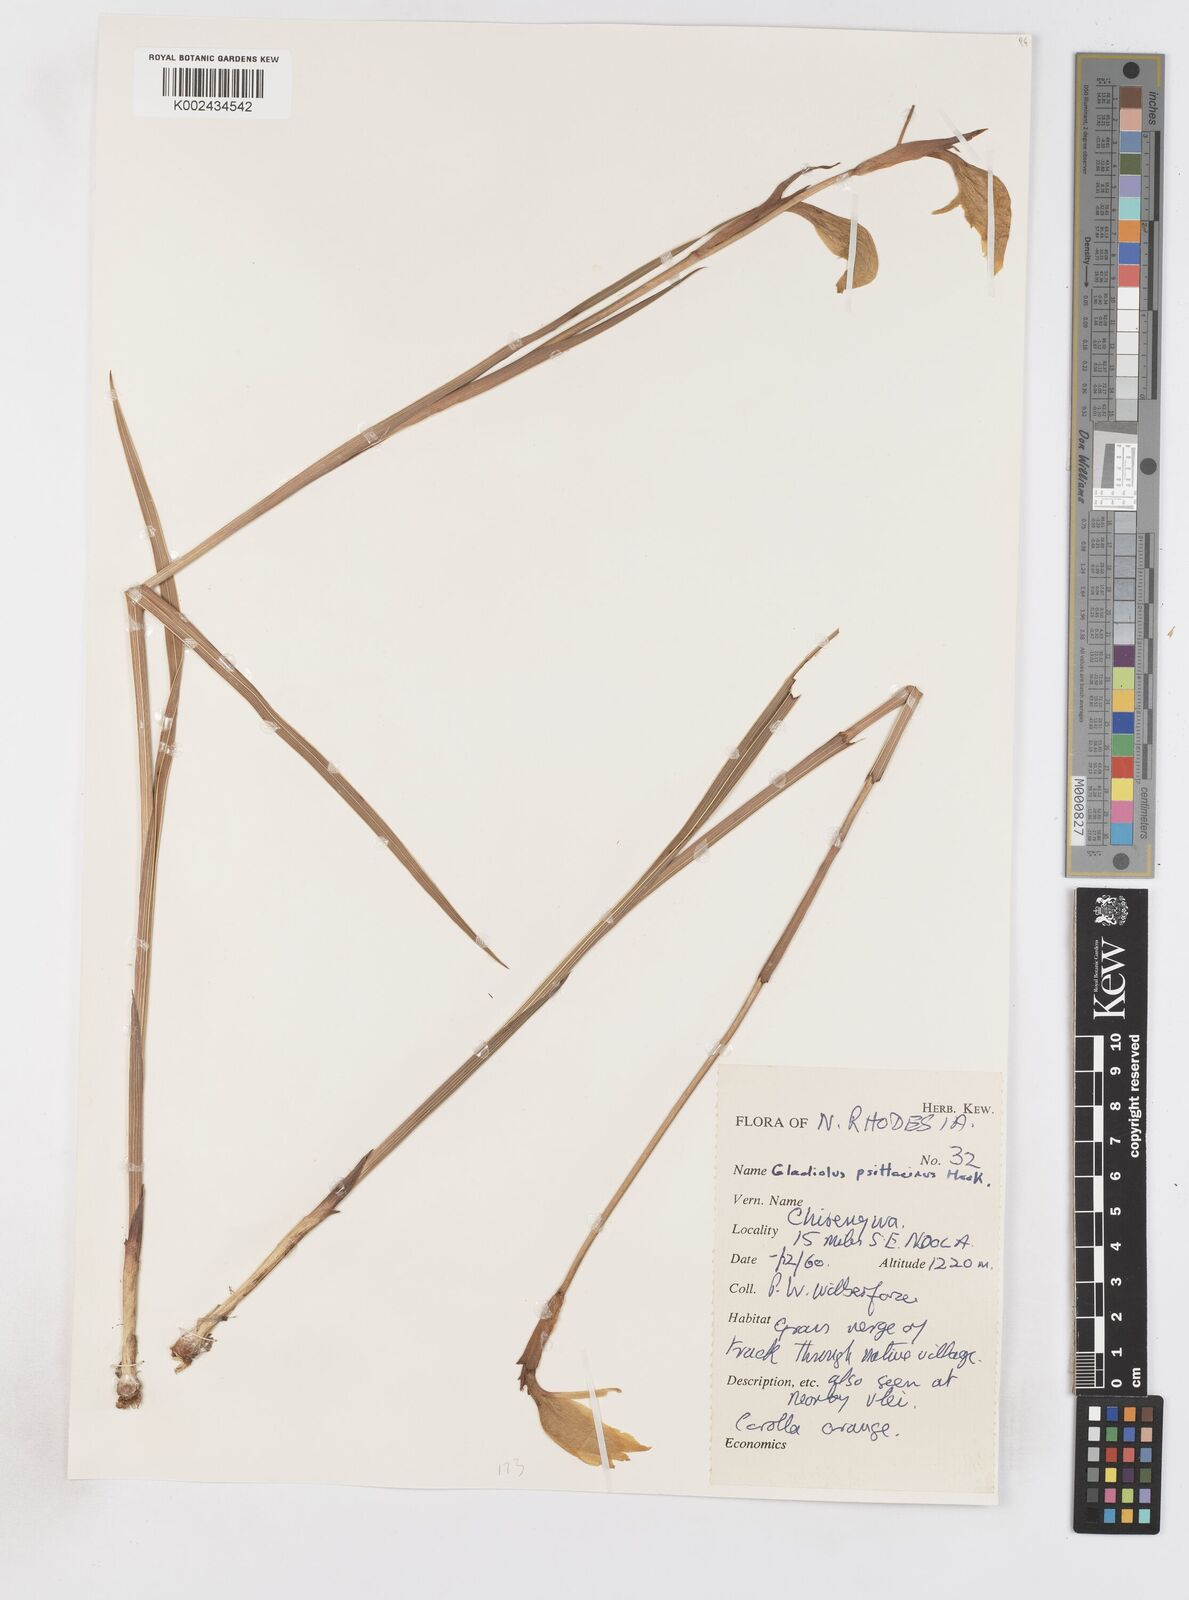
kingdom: Plantae
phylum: Tracheophyta
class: Liliopsida
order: Asparagales
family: Iridaceae
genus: Gladiolus
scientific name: Gladiolus dalenii
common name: Cornflag
